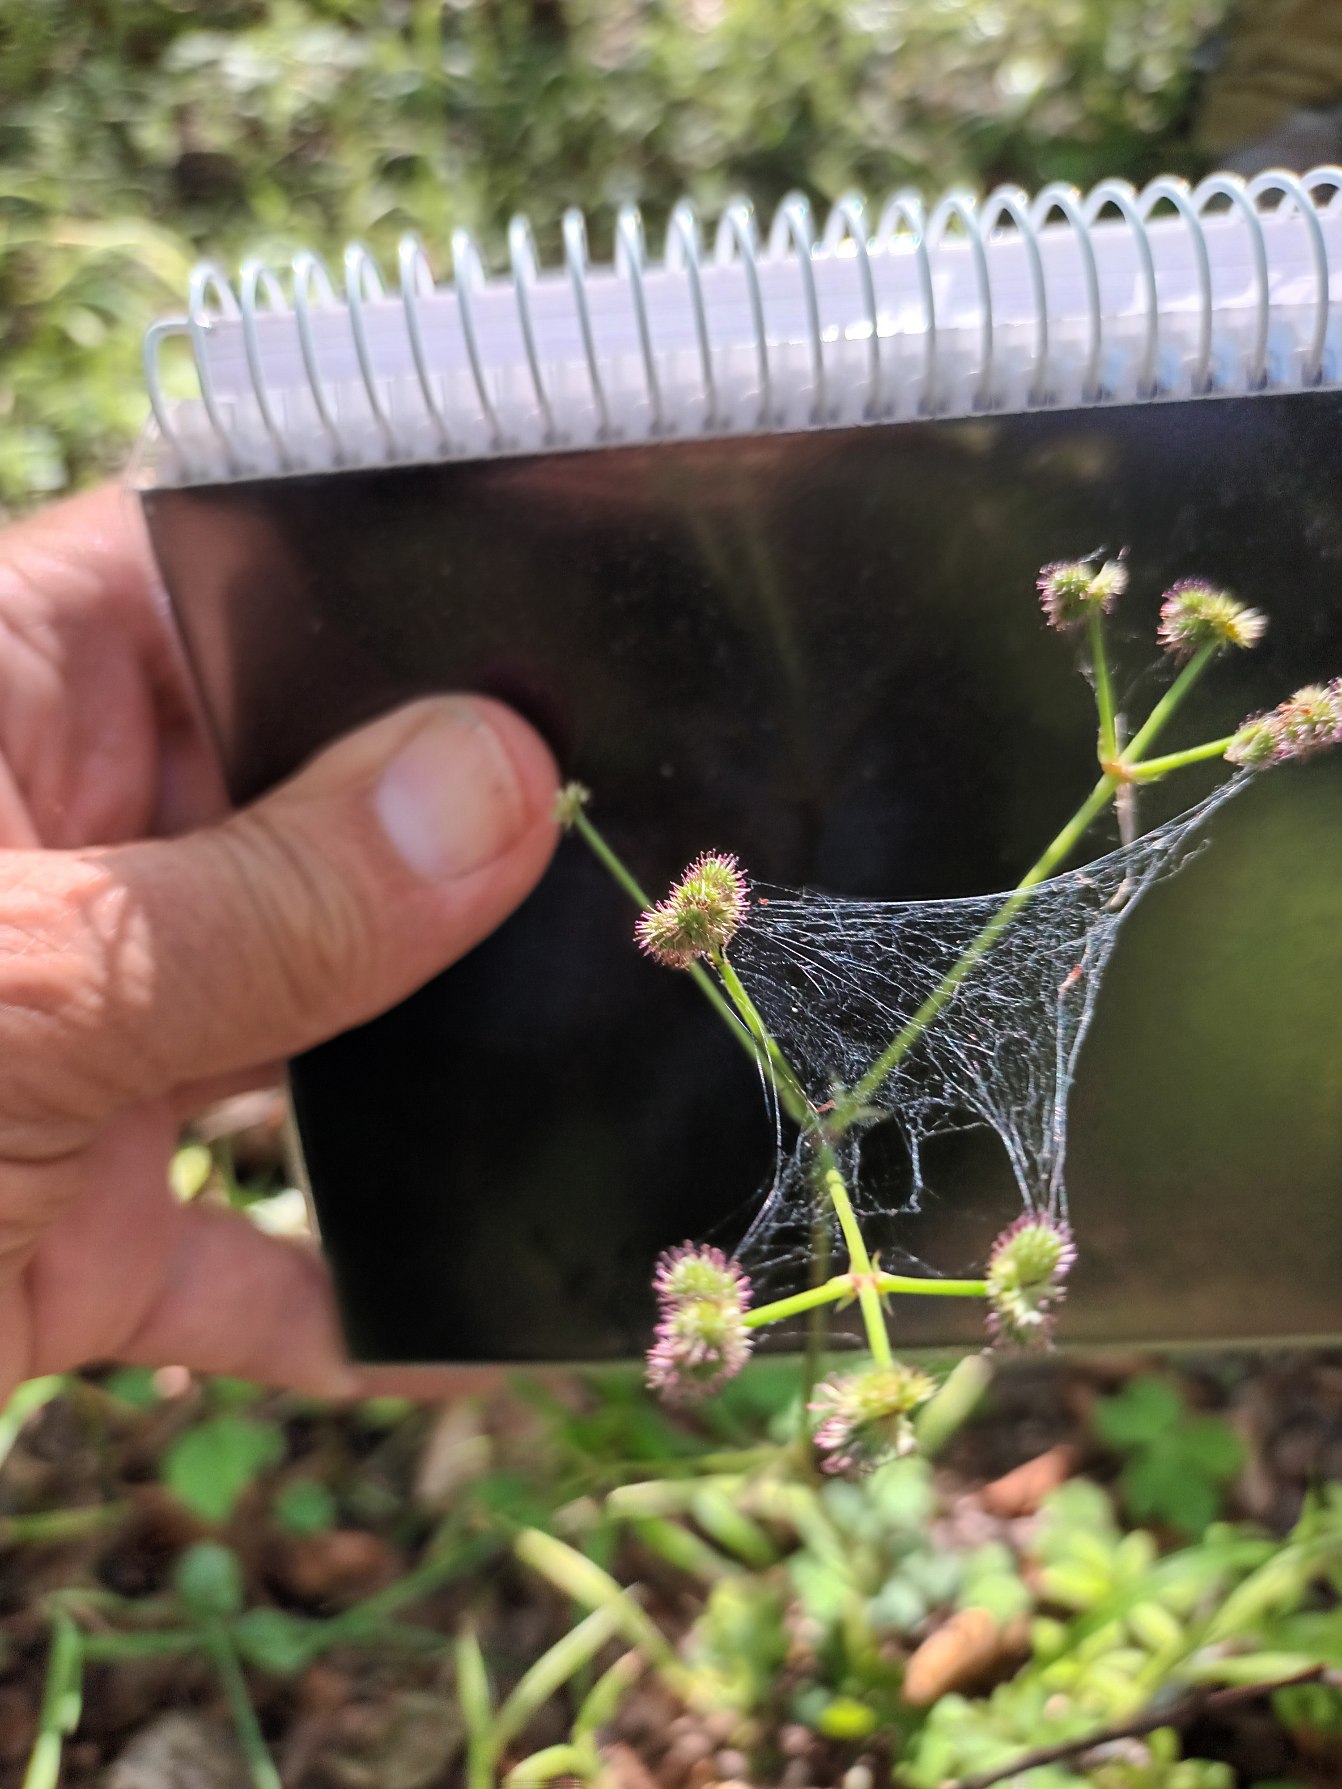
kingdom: Plantae
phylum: Tracheophyta
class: Magnoliopsida
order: Apiales
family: Apiaceae
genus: Sanicula
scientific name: Sanicula europaea
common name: Sanikel
